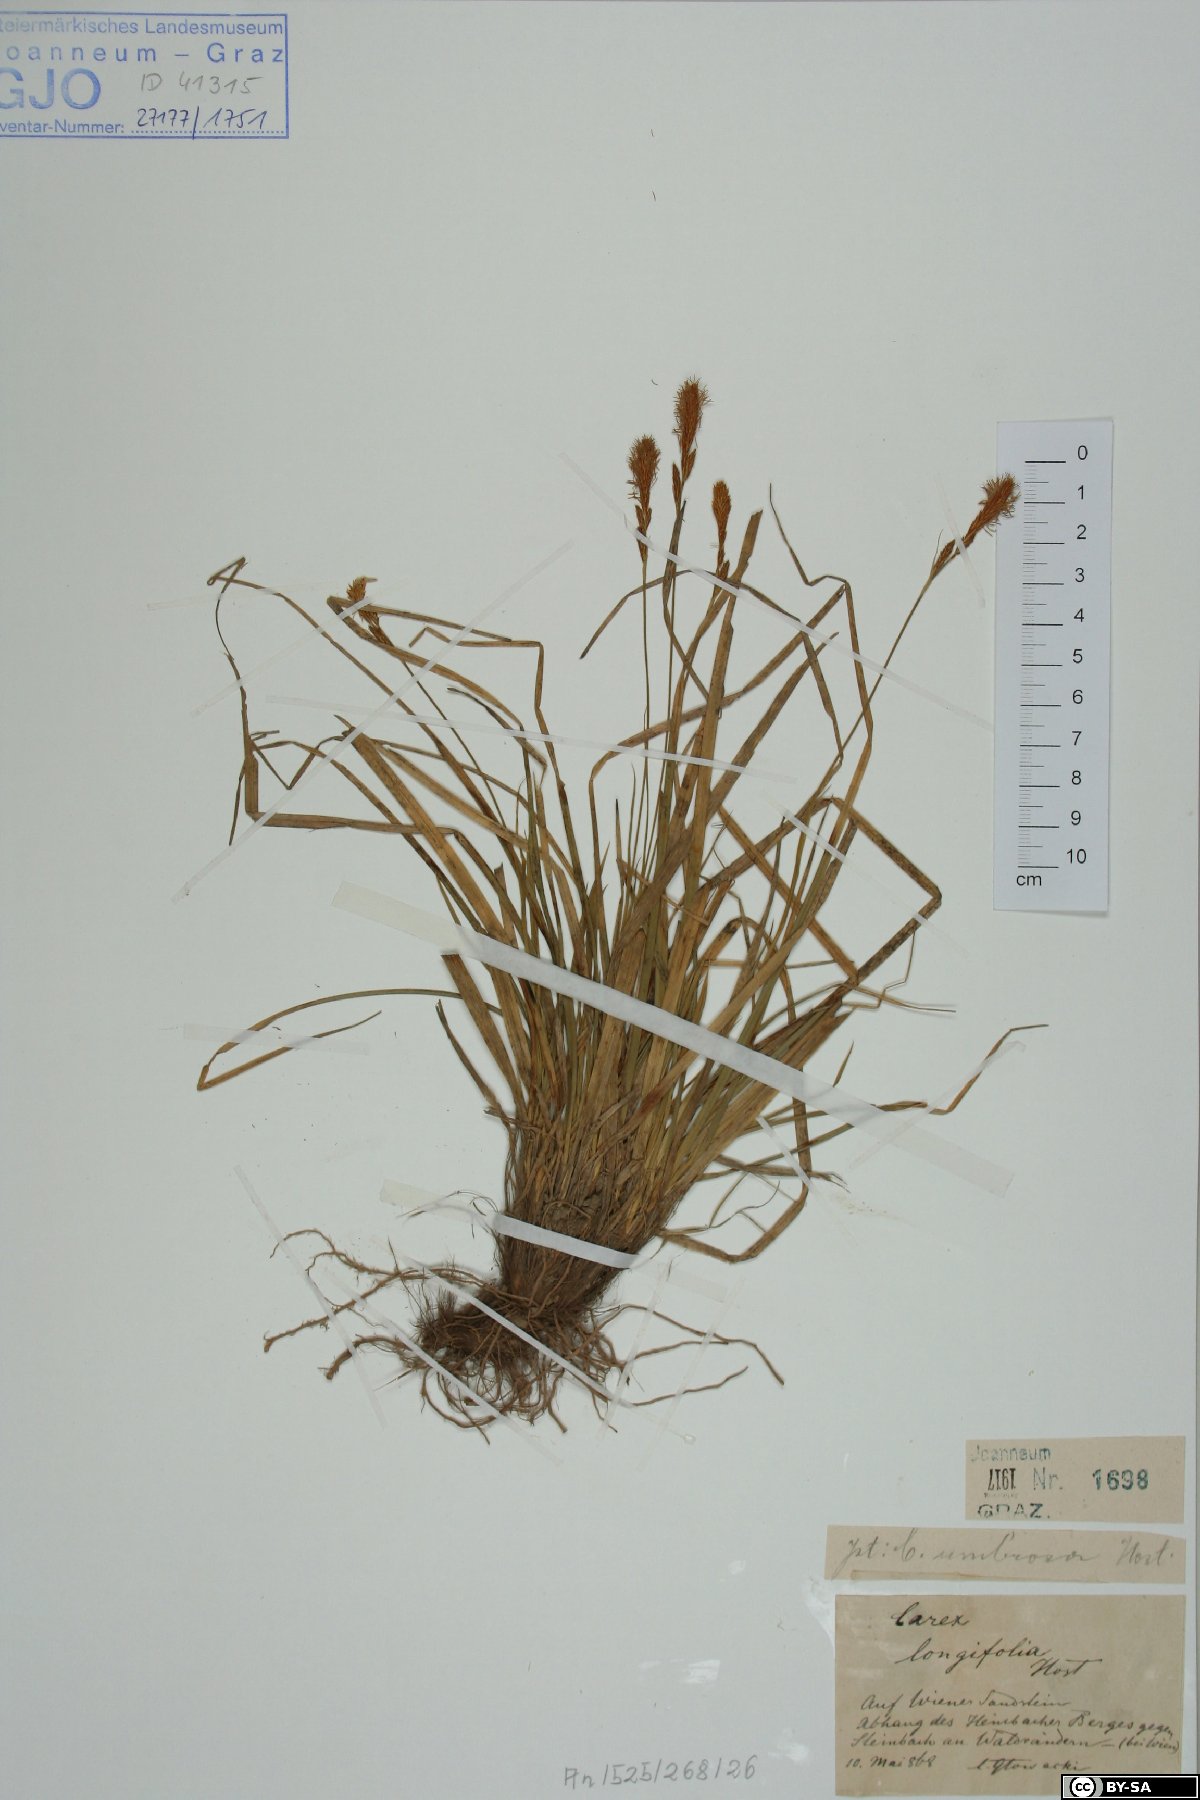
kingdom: Plantae
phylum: Tracheophyta
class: Liliopsida
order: Poales
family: Cyperaceae
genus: Carex
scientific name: Carex umbrosa
